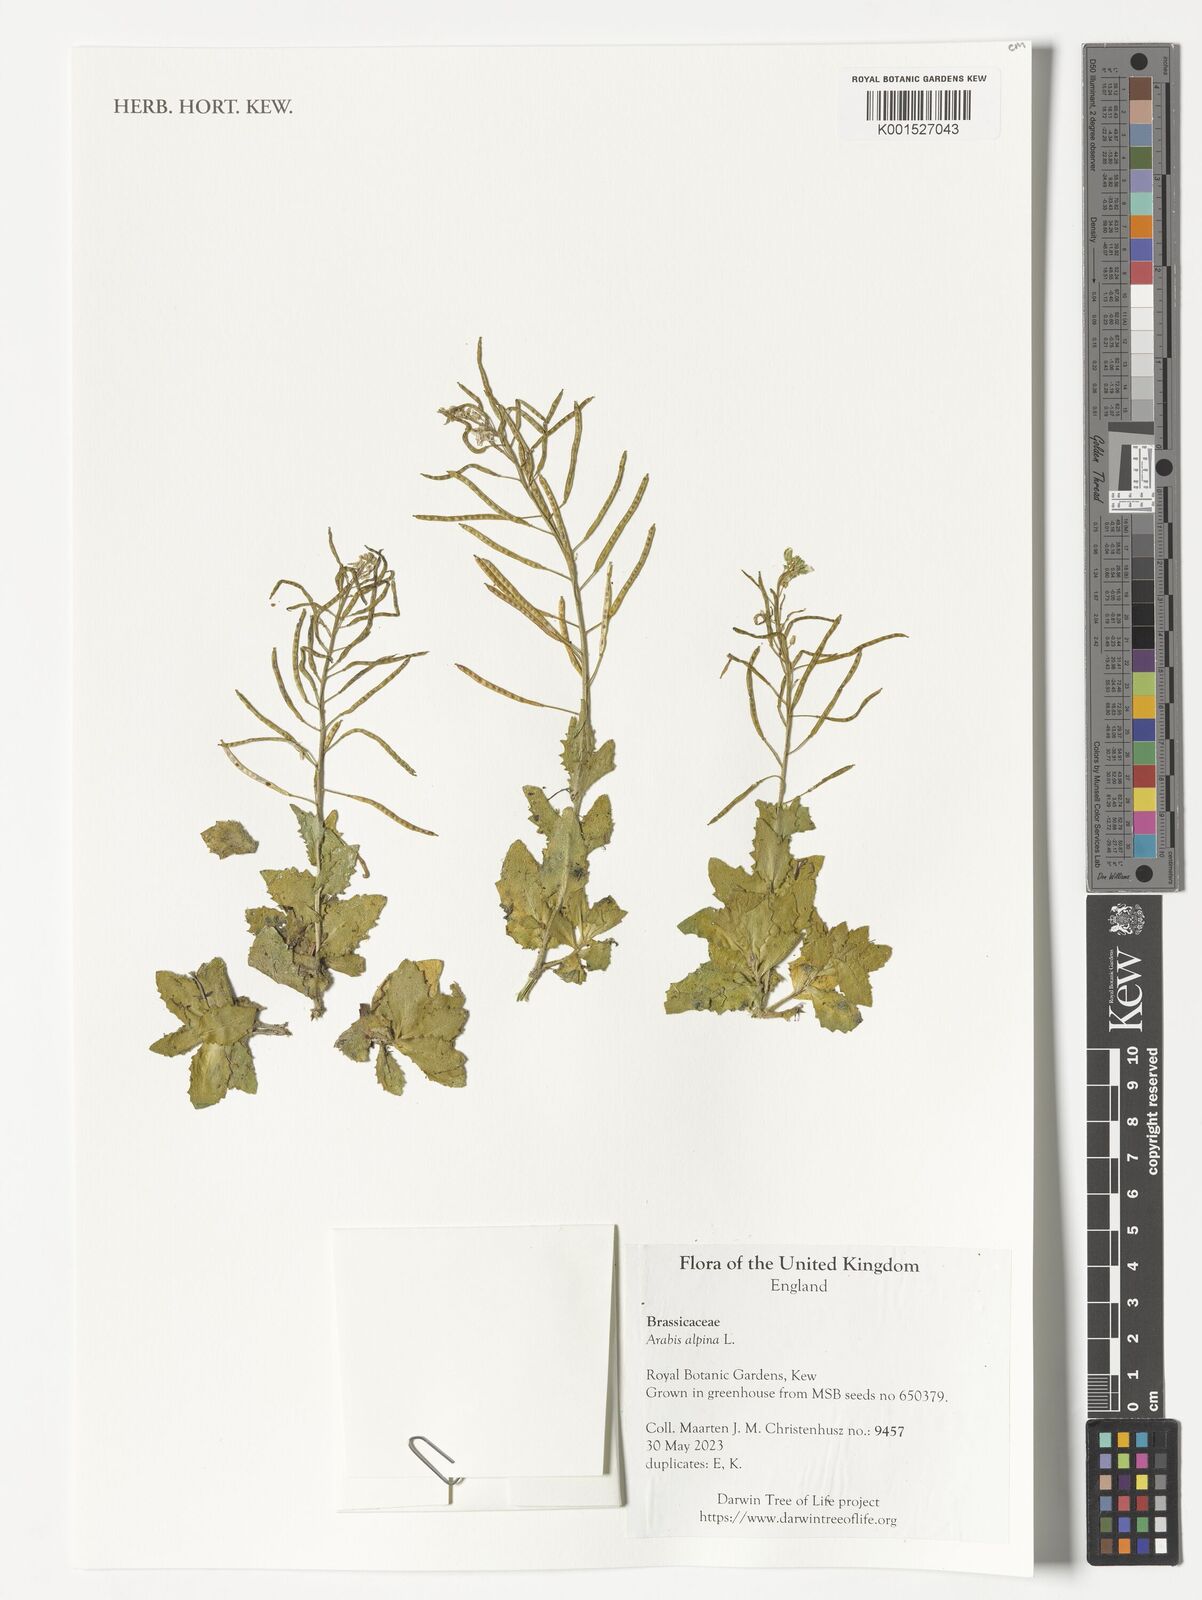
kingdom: Plantae
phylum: Tracheophyta
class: Magnoliopsida
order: Brassicales
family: Brassicaceae
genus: Arabis
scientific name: Arabis alpina
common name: Alpine rock-cress
